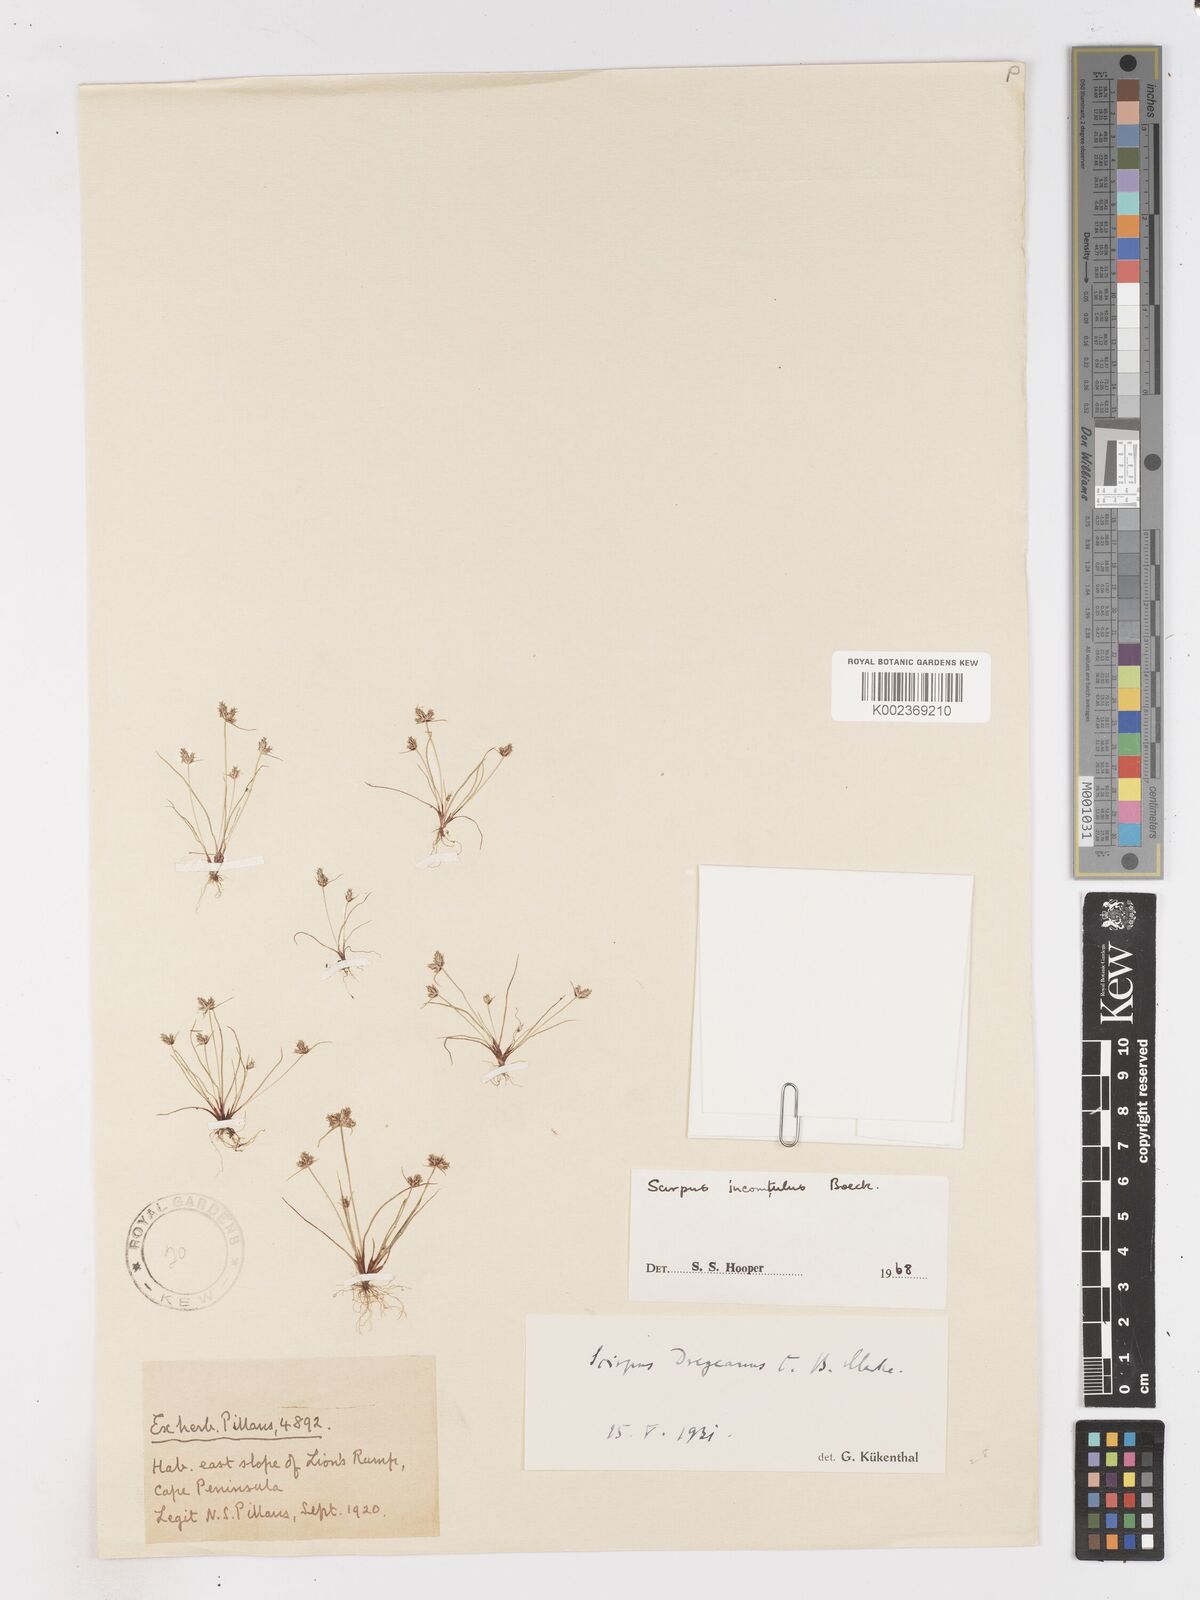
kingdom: Plantae
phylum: Tracheophyta
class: Liliopsida
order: Poales
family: Cyperaceae
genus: Ficinia
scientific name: Ficinia incomtula
